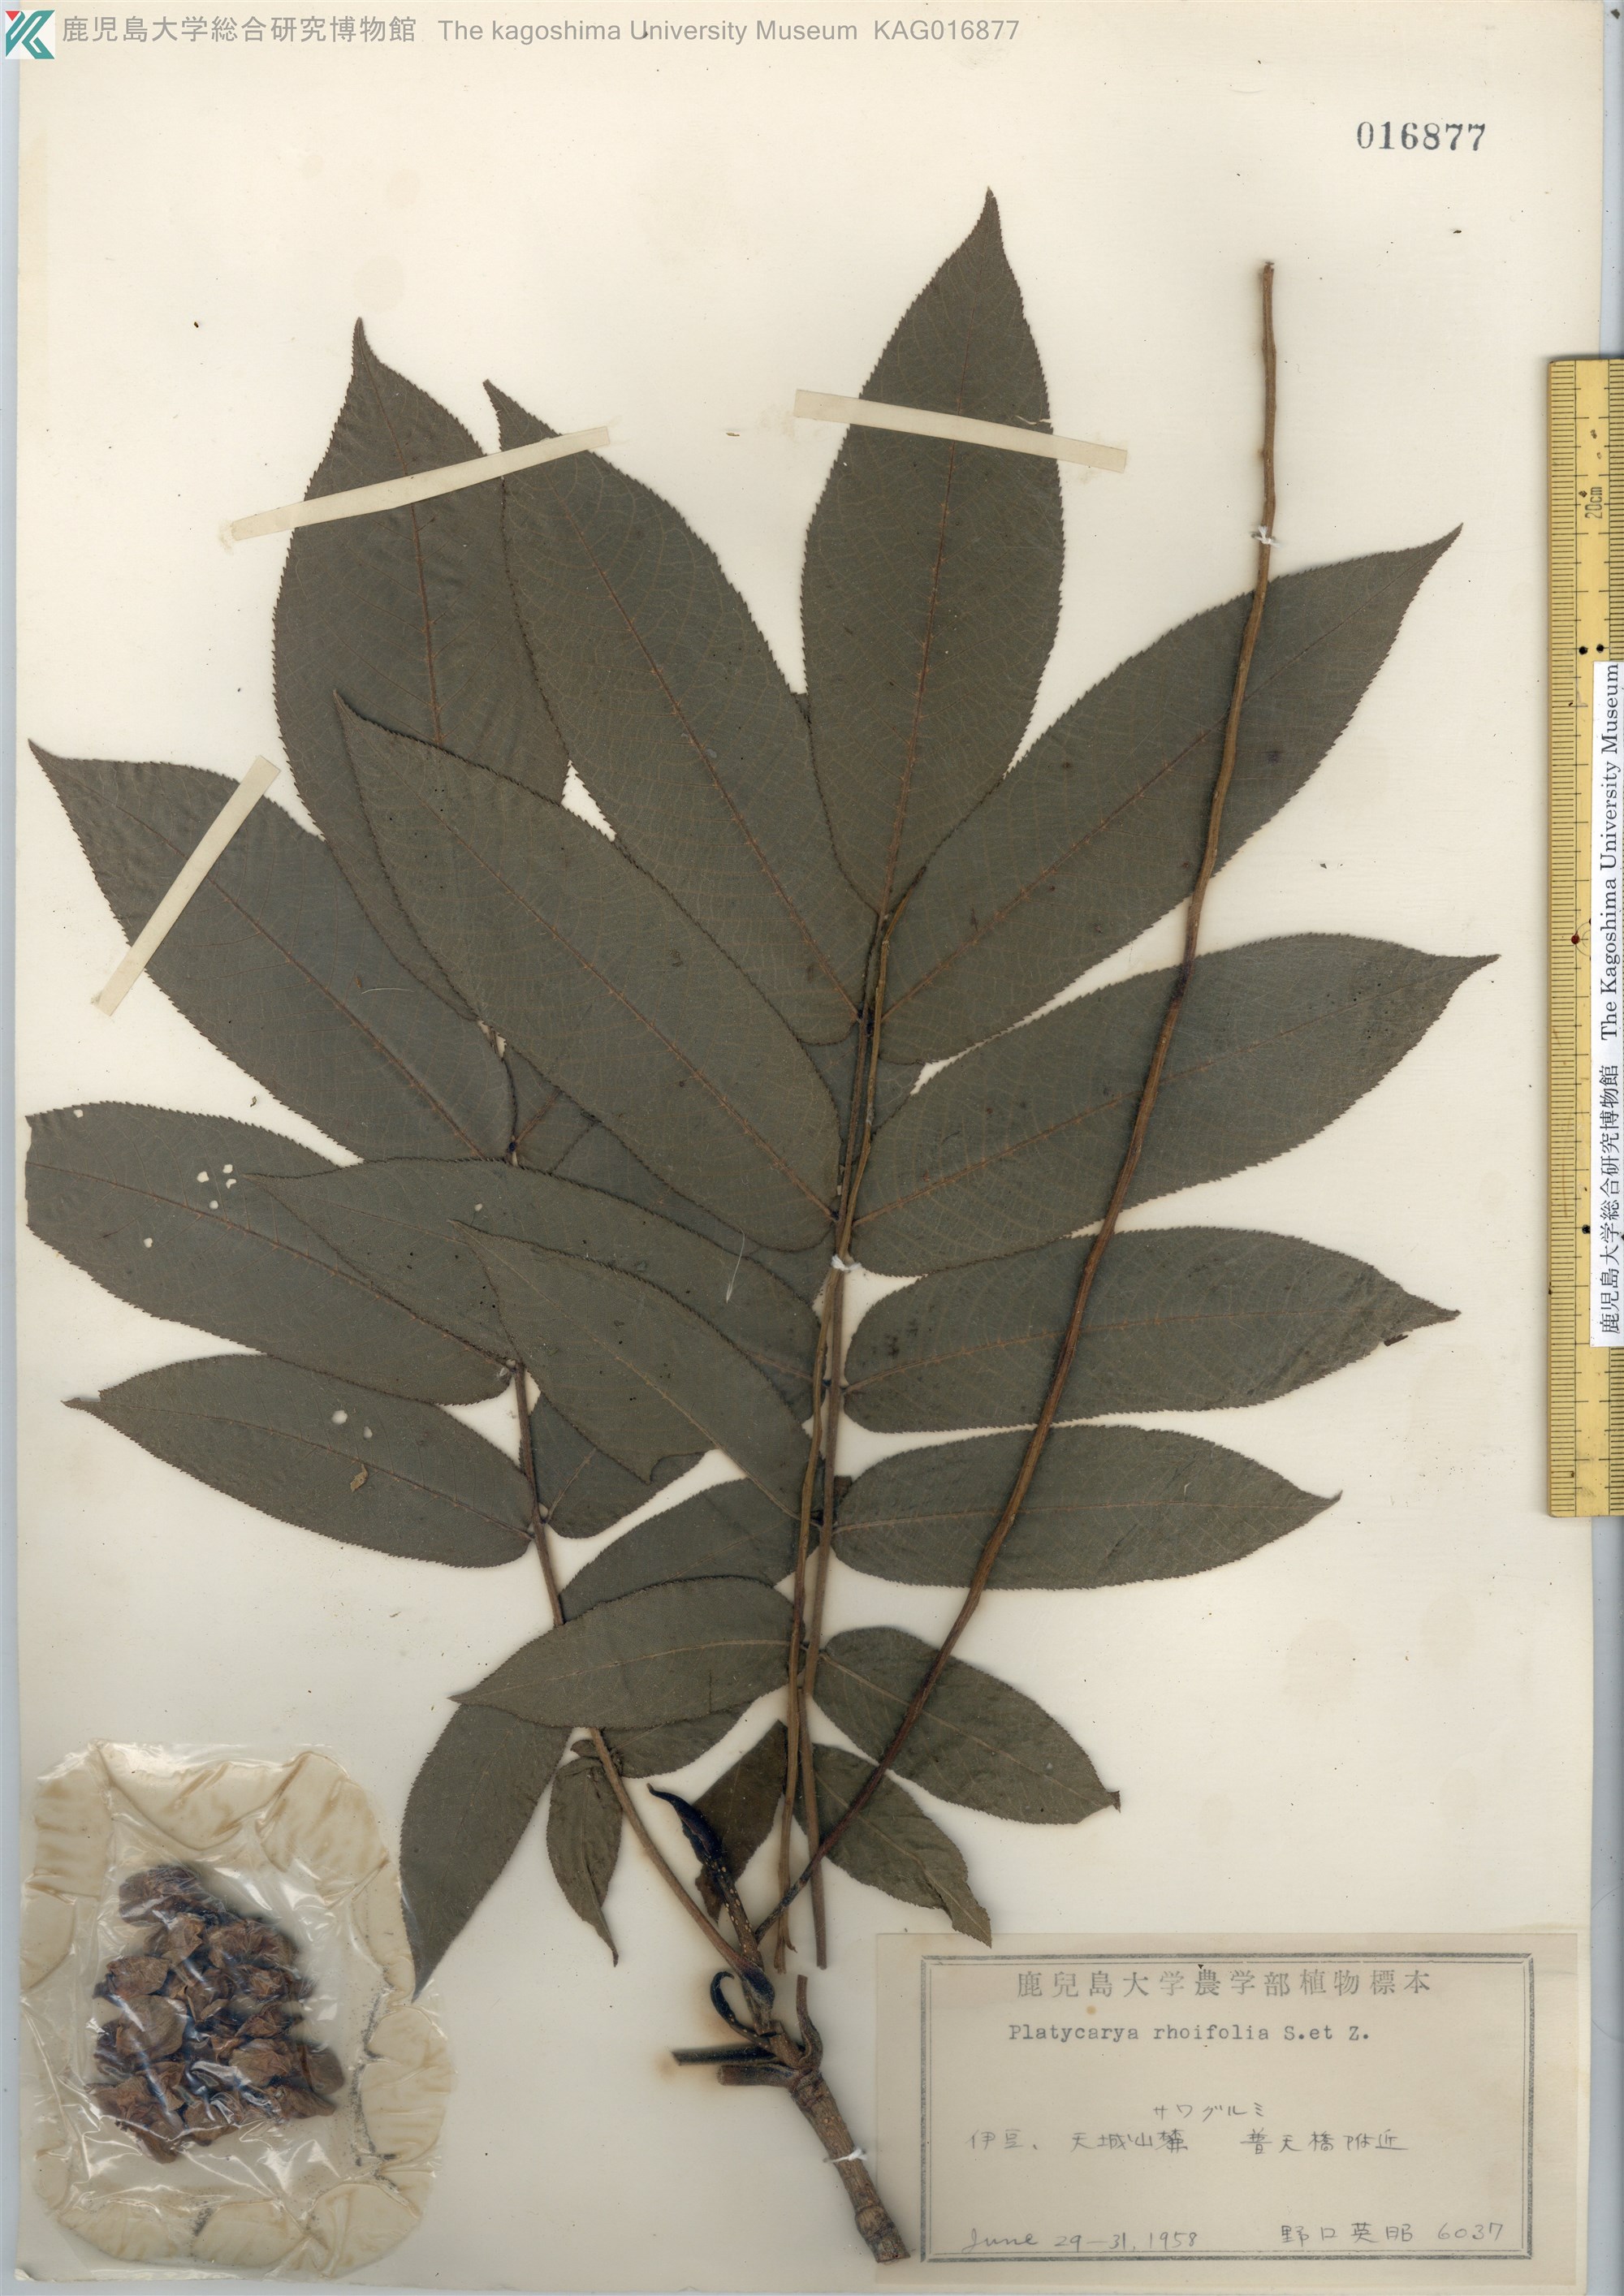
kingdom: Plantae
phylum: Tracheophyta
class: Magnoliopsida
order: Fagales
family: Juglandaceae
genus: Pterocarya
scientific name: Pterocarya rhoifolia
